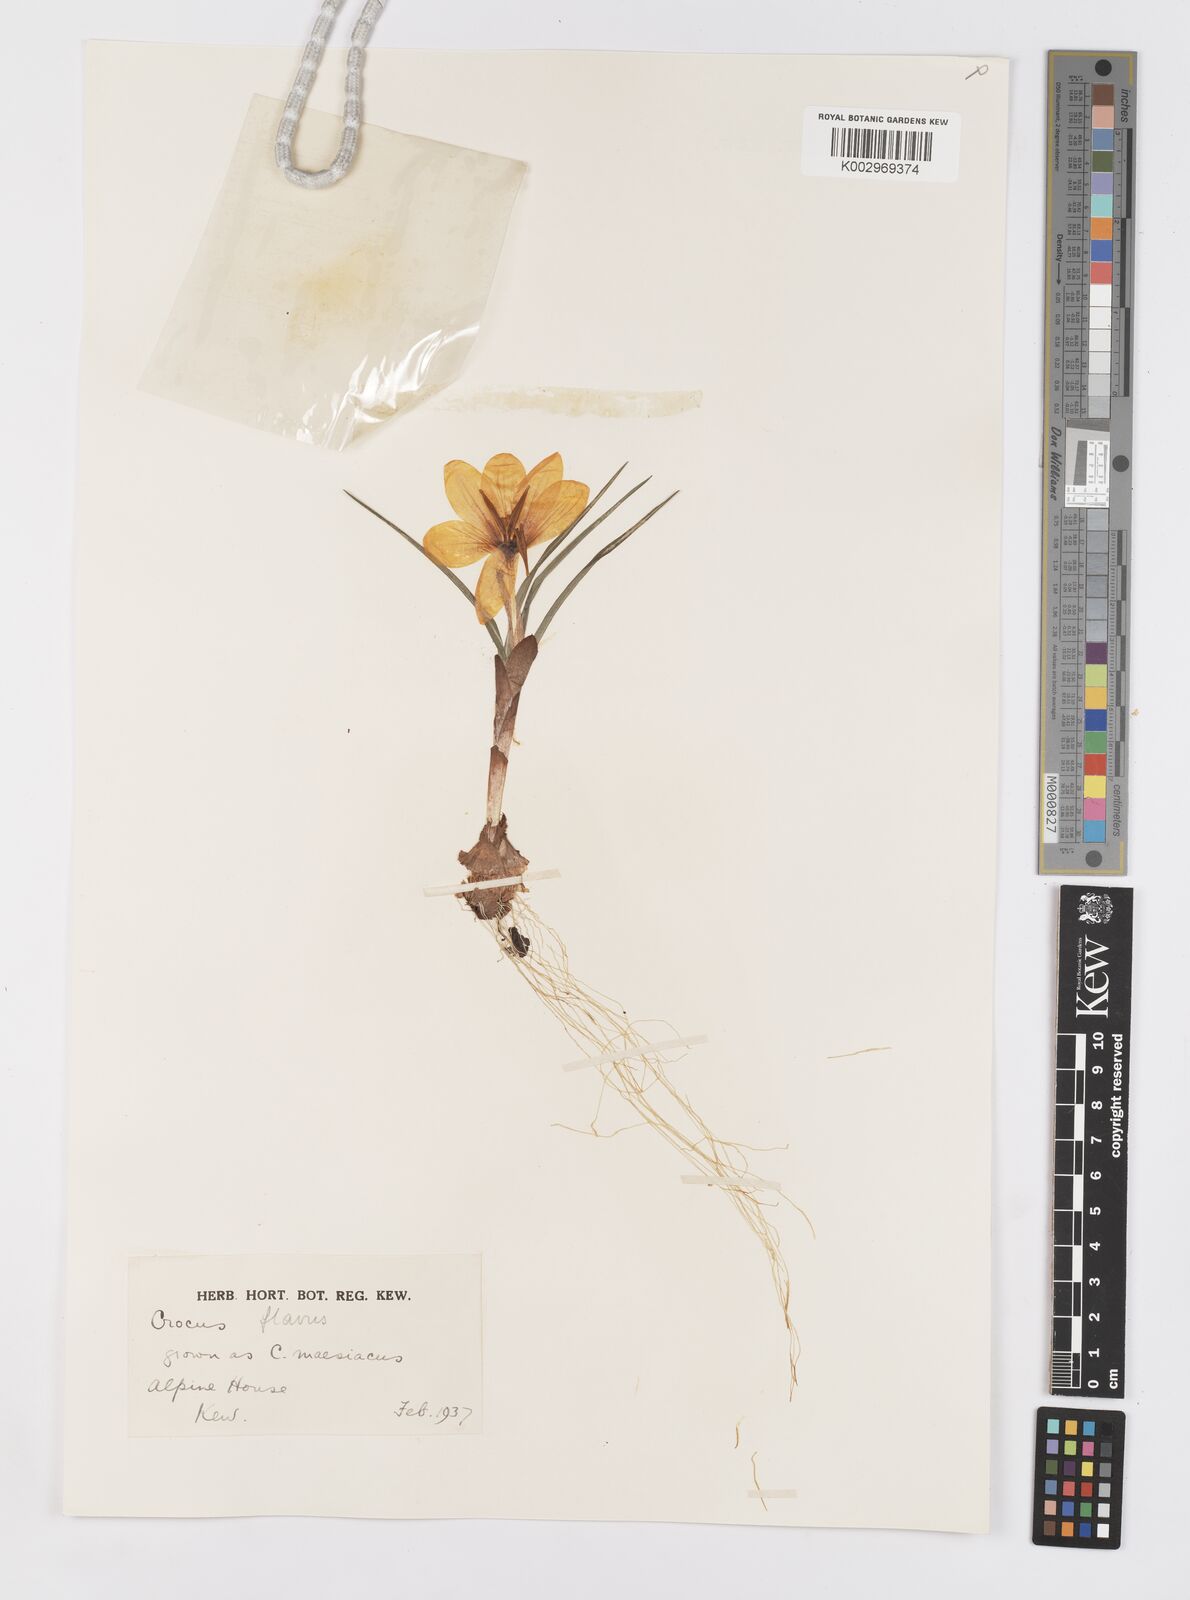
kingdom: Plantae
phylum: Tracheophyta
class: Liliopsida
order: Asparagales
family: Iridaceae
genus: Crocus
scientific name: Crocus flavus
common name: Yellow crocus
